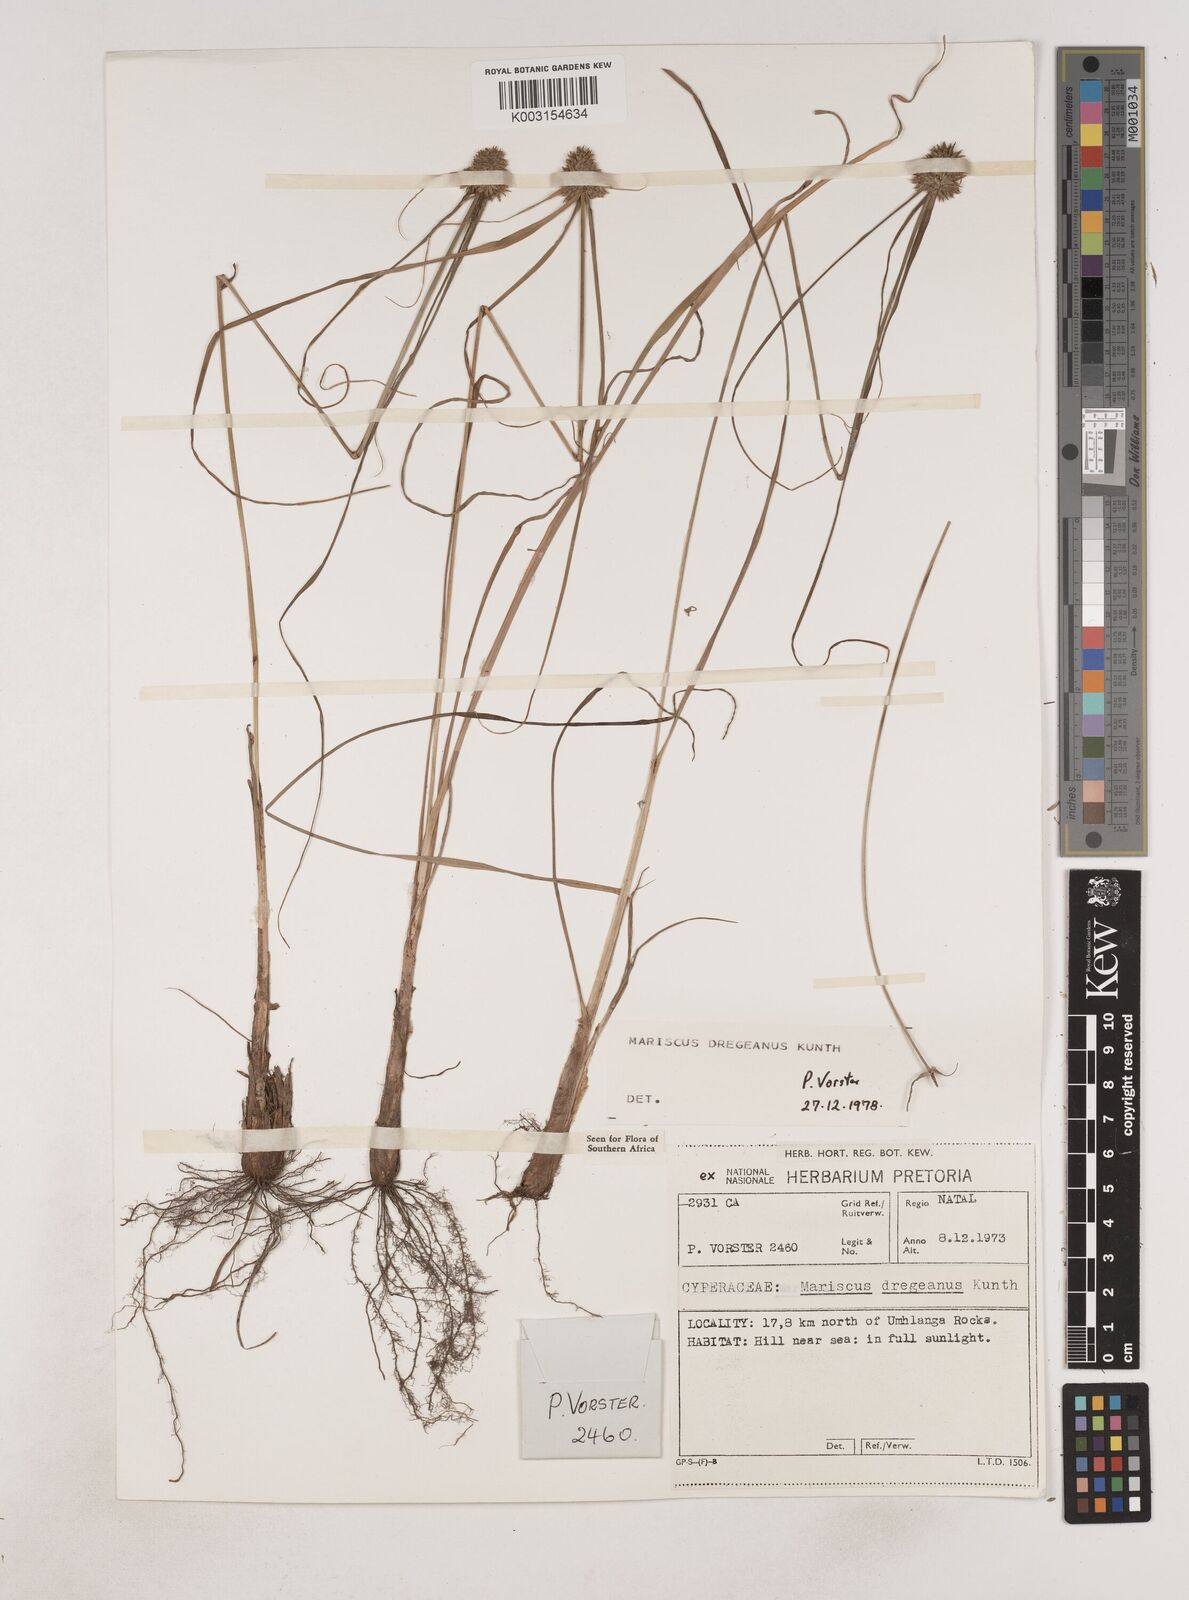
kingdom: Plantae
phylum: Tracheophyta
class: Liliopsida
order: Poales
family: Cyperaceae
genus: Cyperus
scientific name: Cyperus dubius
